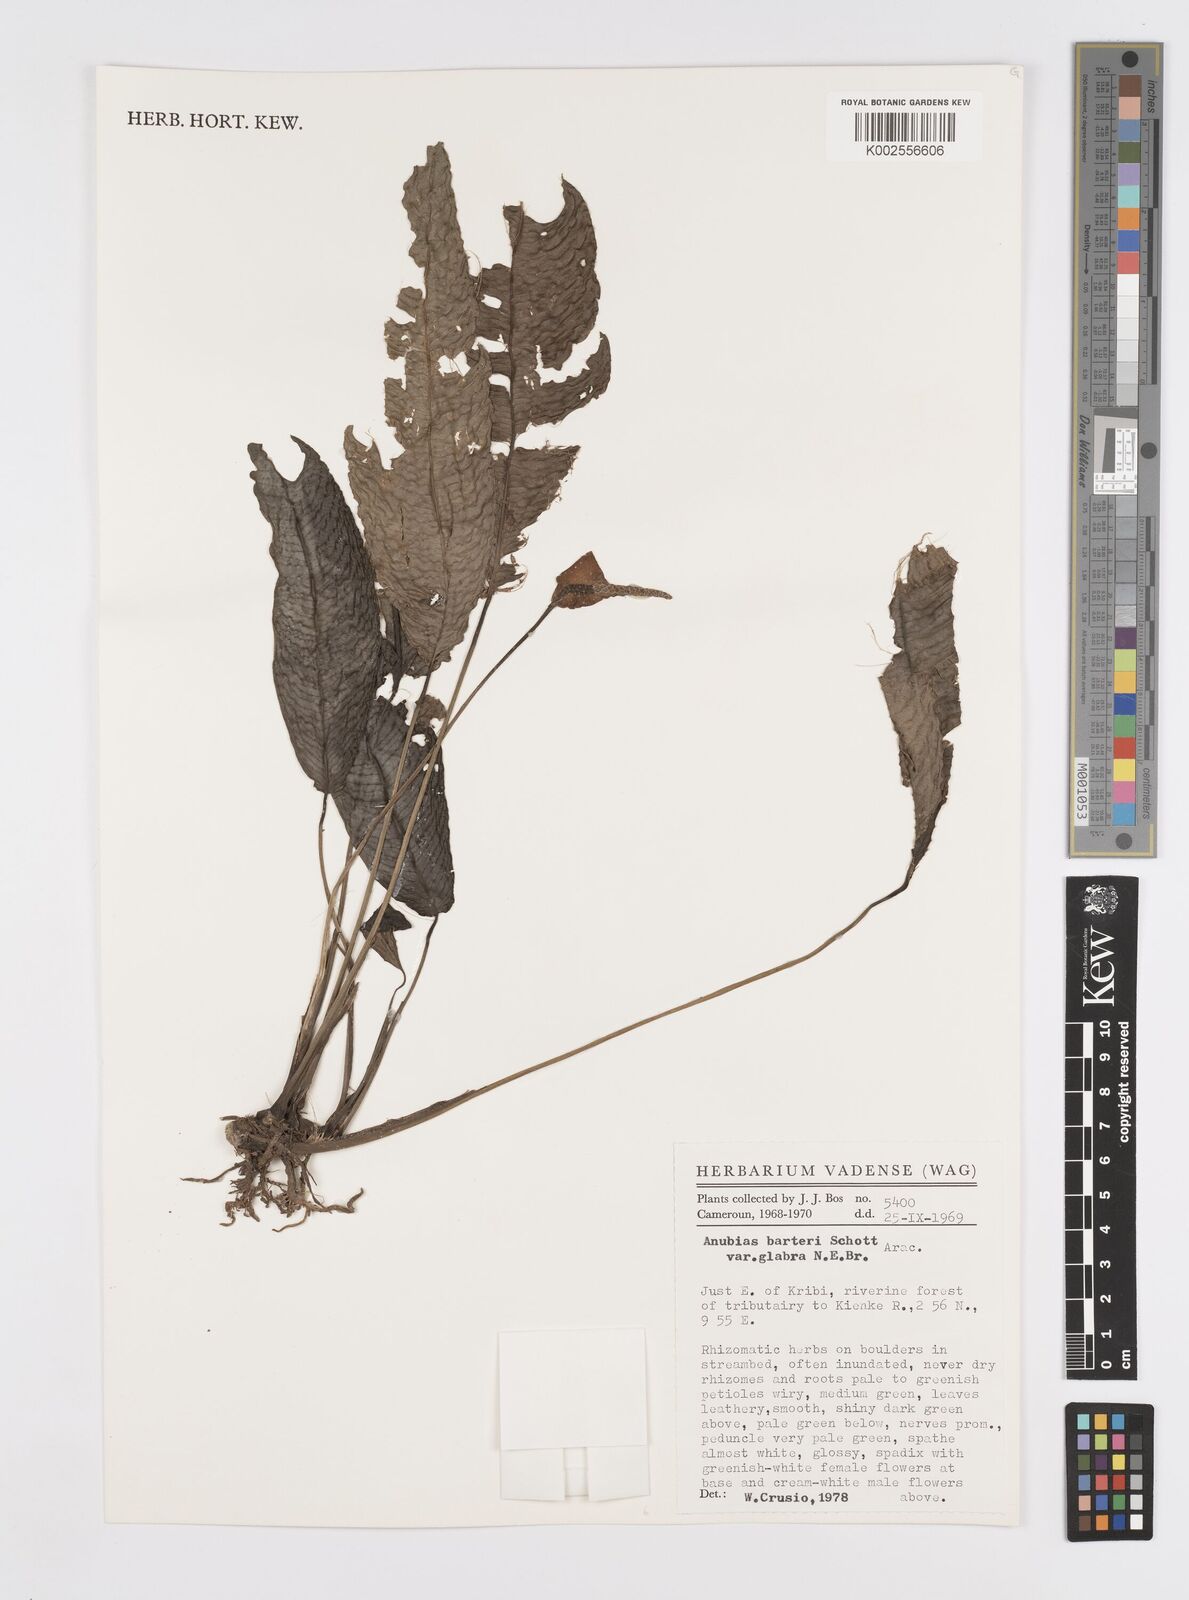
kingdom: Plantae
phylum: Tracheophyta
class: Liliopsida
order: Alismatales
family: Araceae
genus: Anubias
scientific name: Anubias barteri
